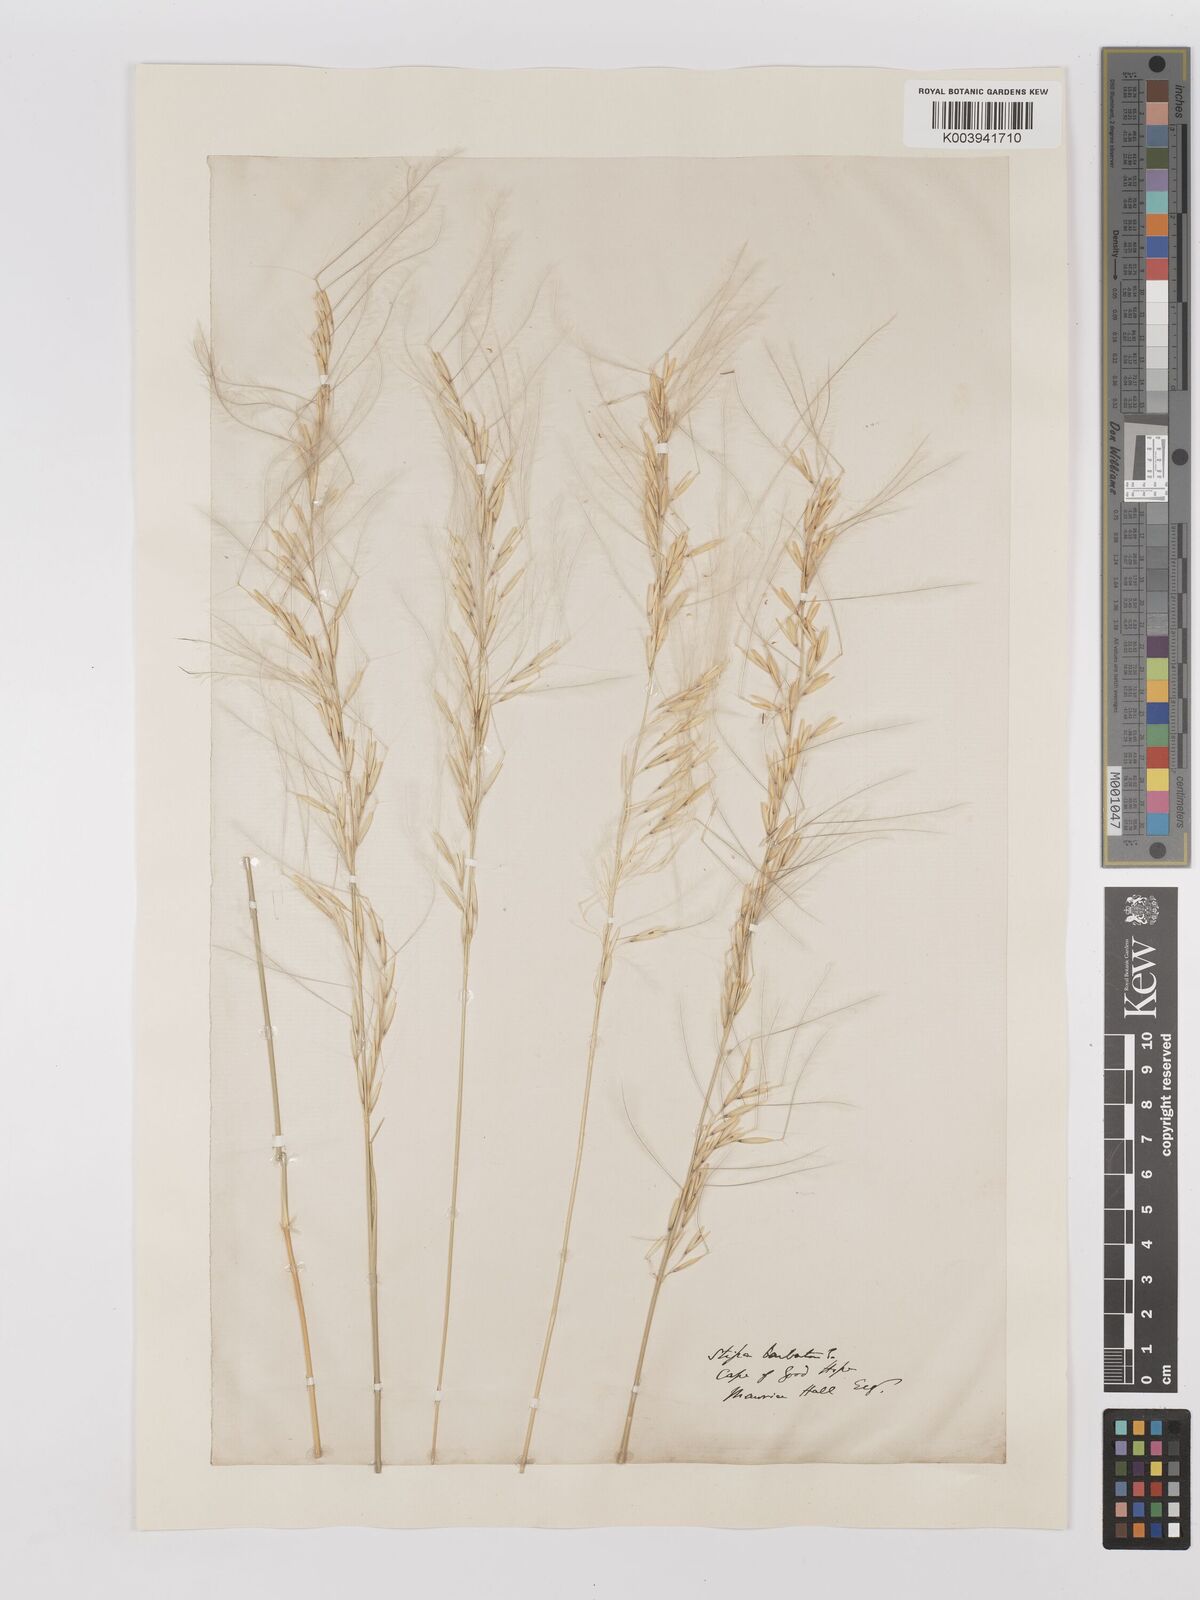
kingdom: Plantae
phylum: Tracheophyta
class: Liliopsida
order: Poales
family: Poaceae
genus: Stipagrostis
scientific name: Stipagrostis ciliata
